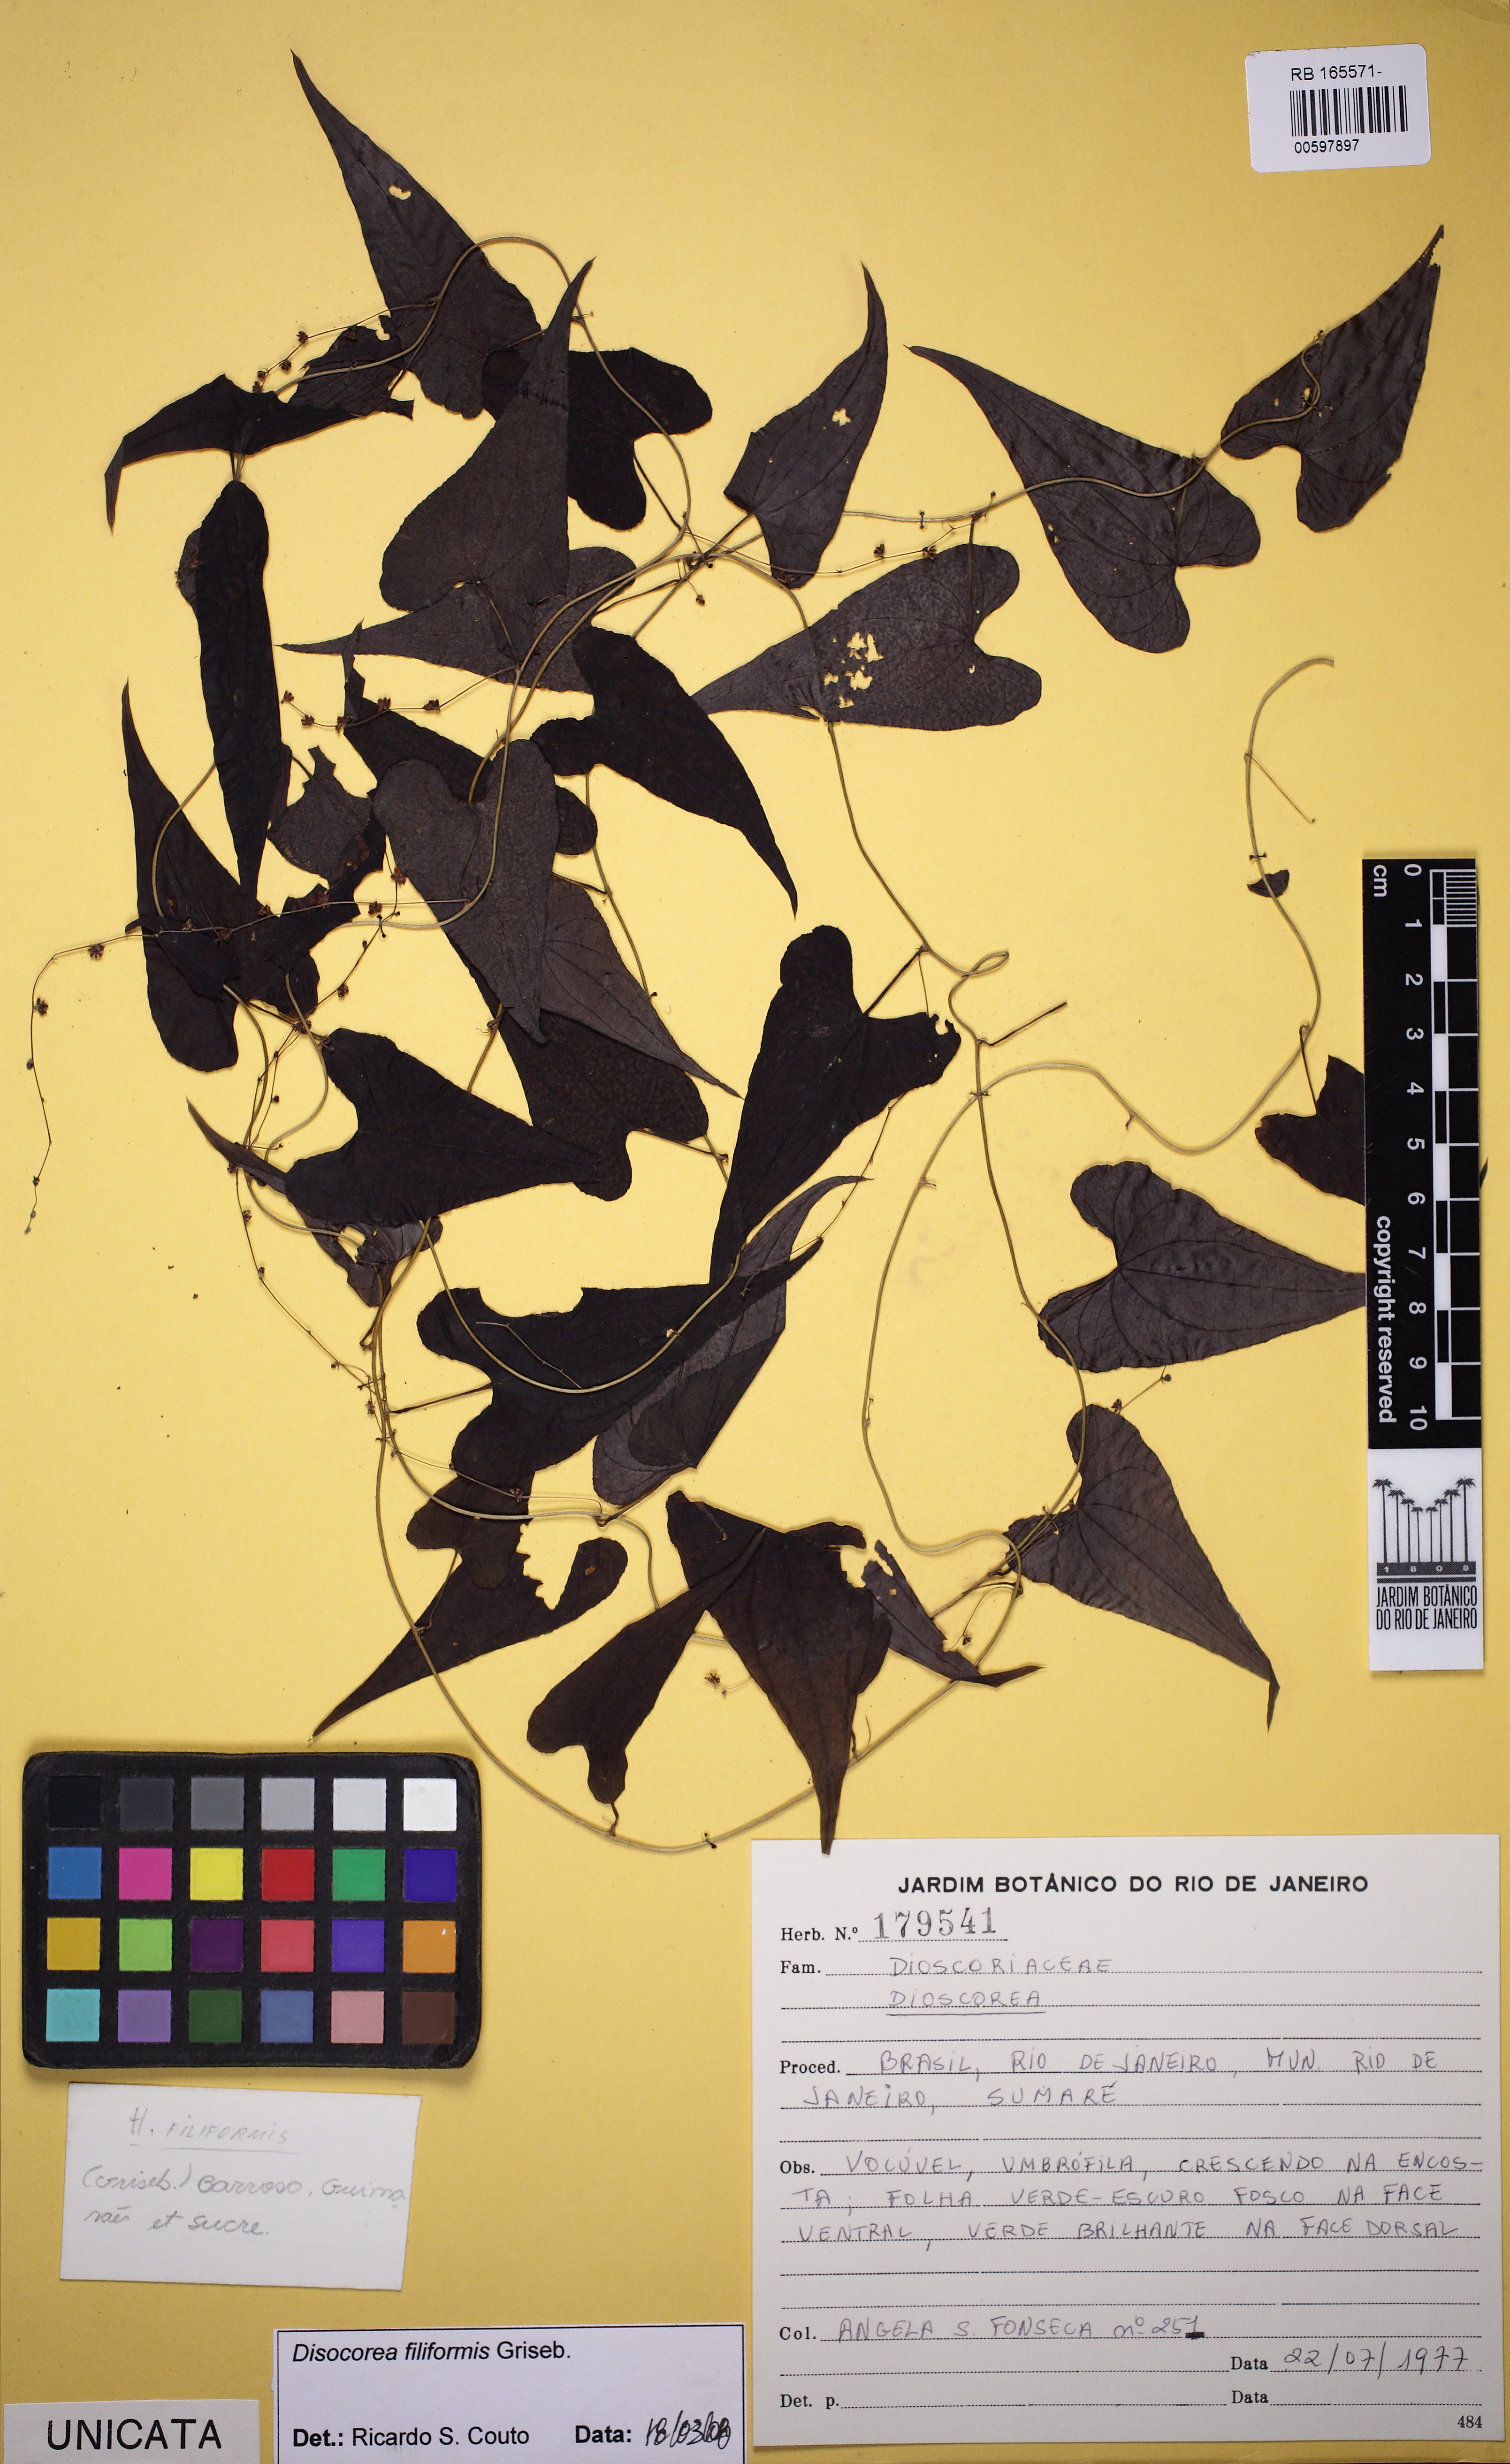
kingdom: Plantae
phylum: Tracheophyta
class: Liliopsida
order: Dioscoreales
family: Dioscoreaceae
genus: Dioscorea
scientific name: Dioscorea
